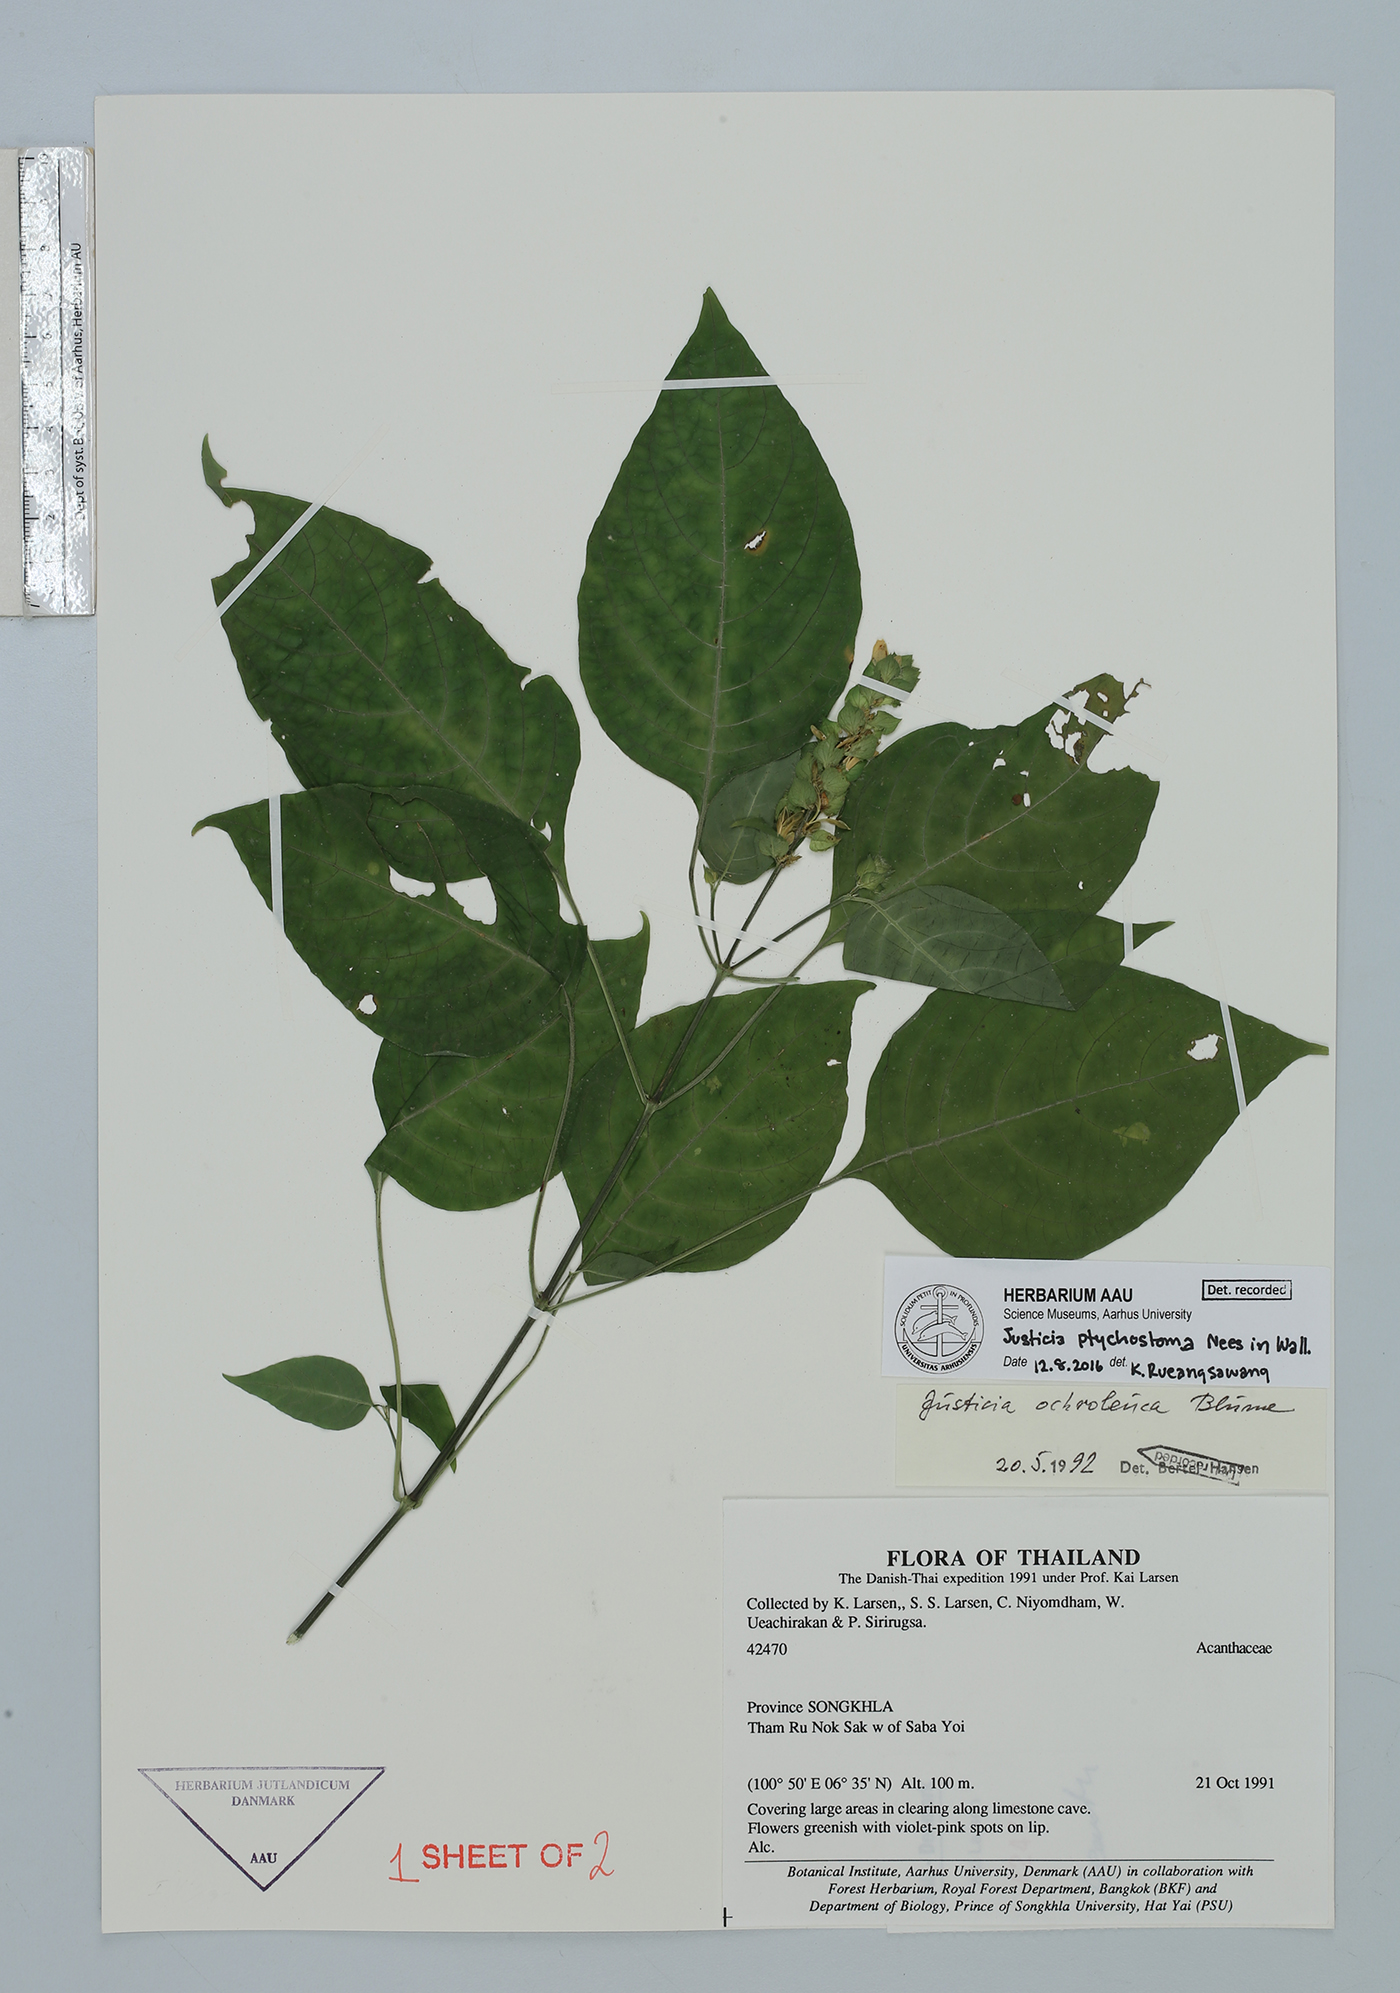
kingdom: Plantae
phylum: Tracheophyta
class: Magnoliopsida
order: Lamiales
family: Acanthaceae
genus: Justicia
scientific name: Justicia sumatrana
